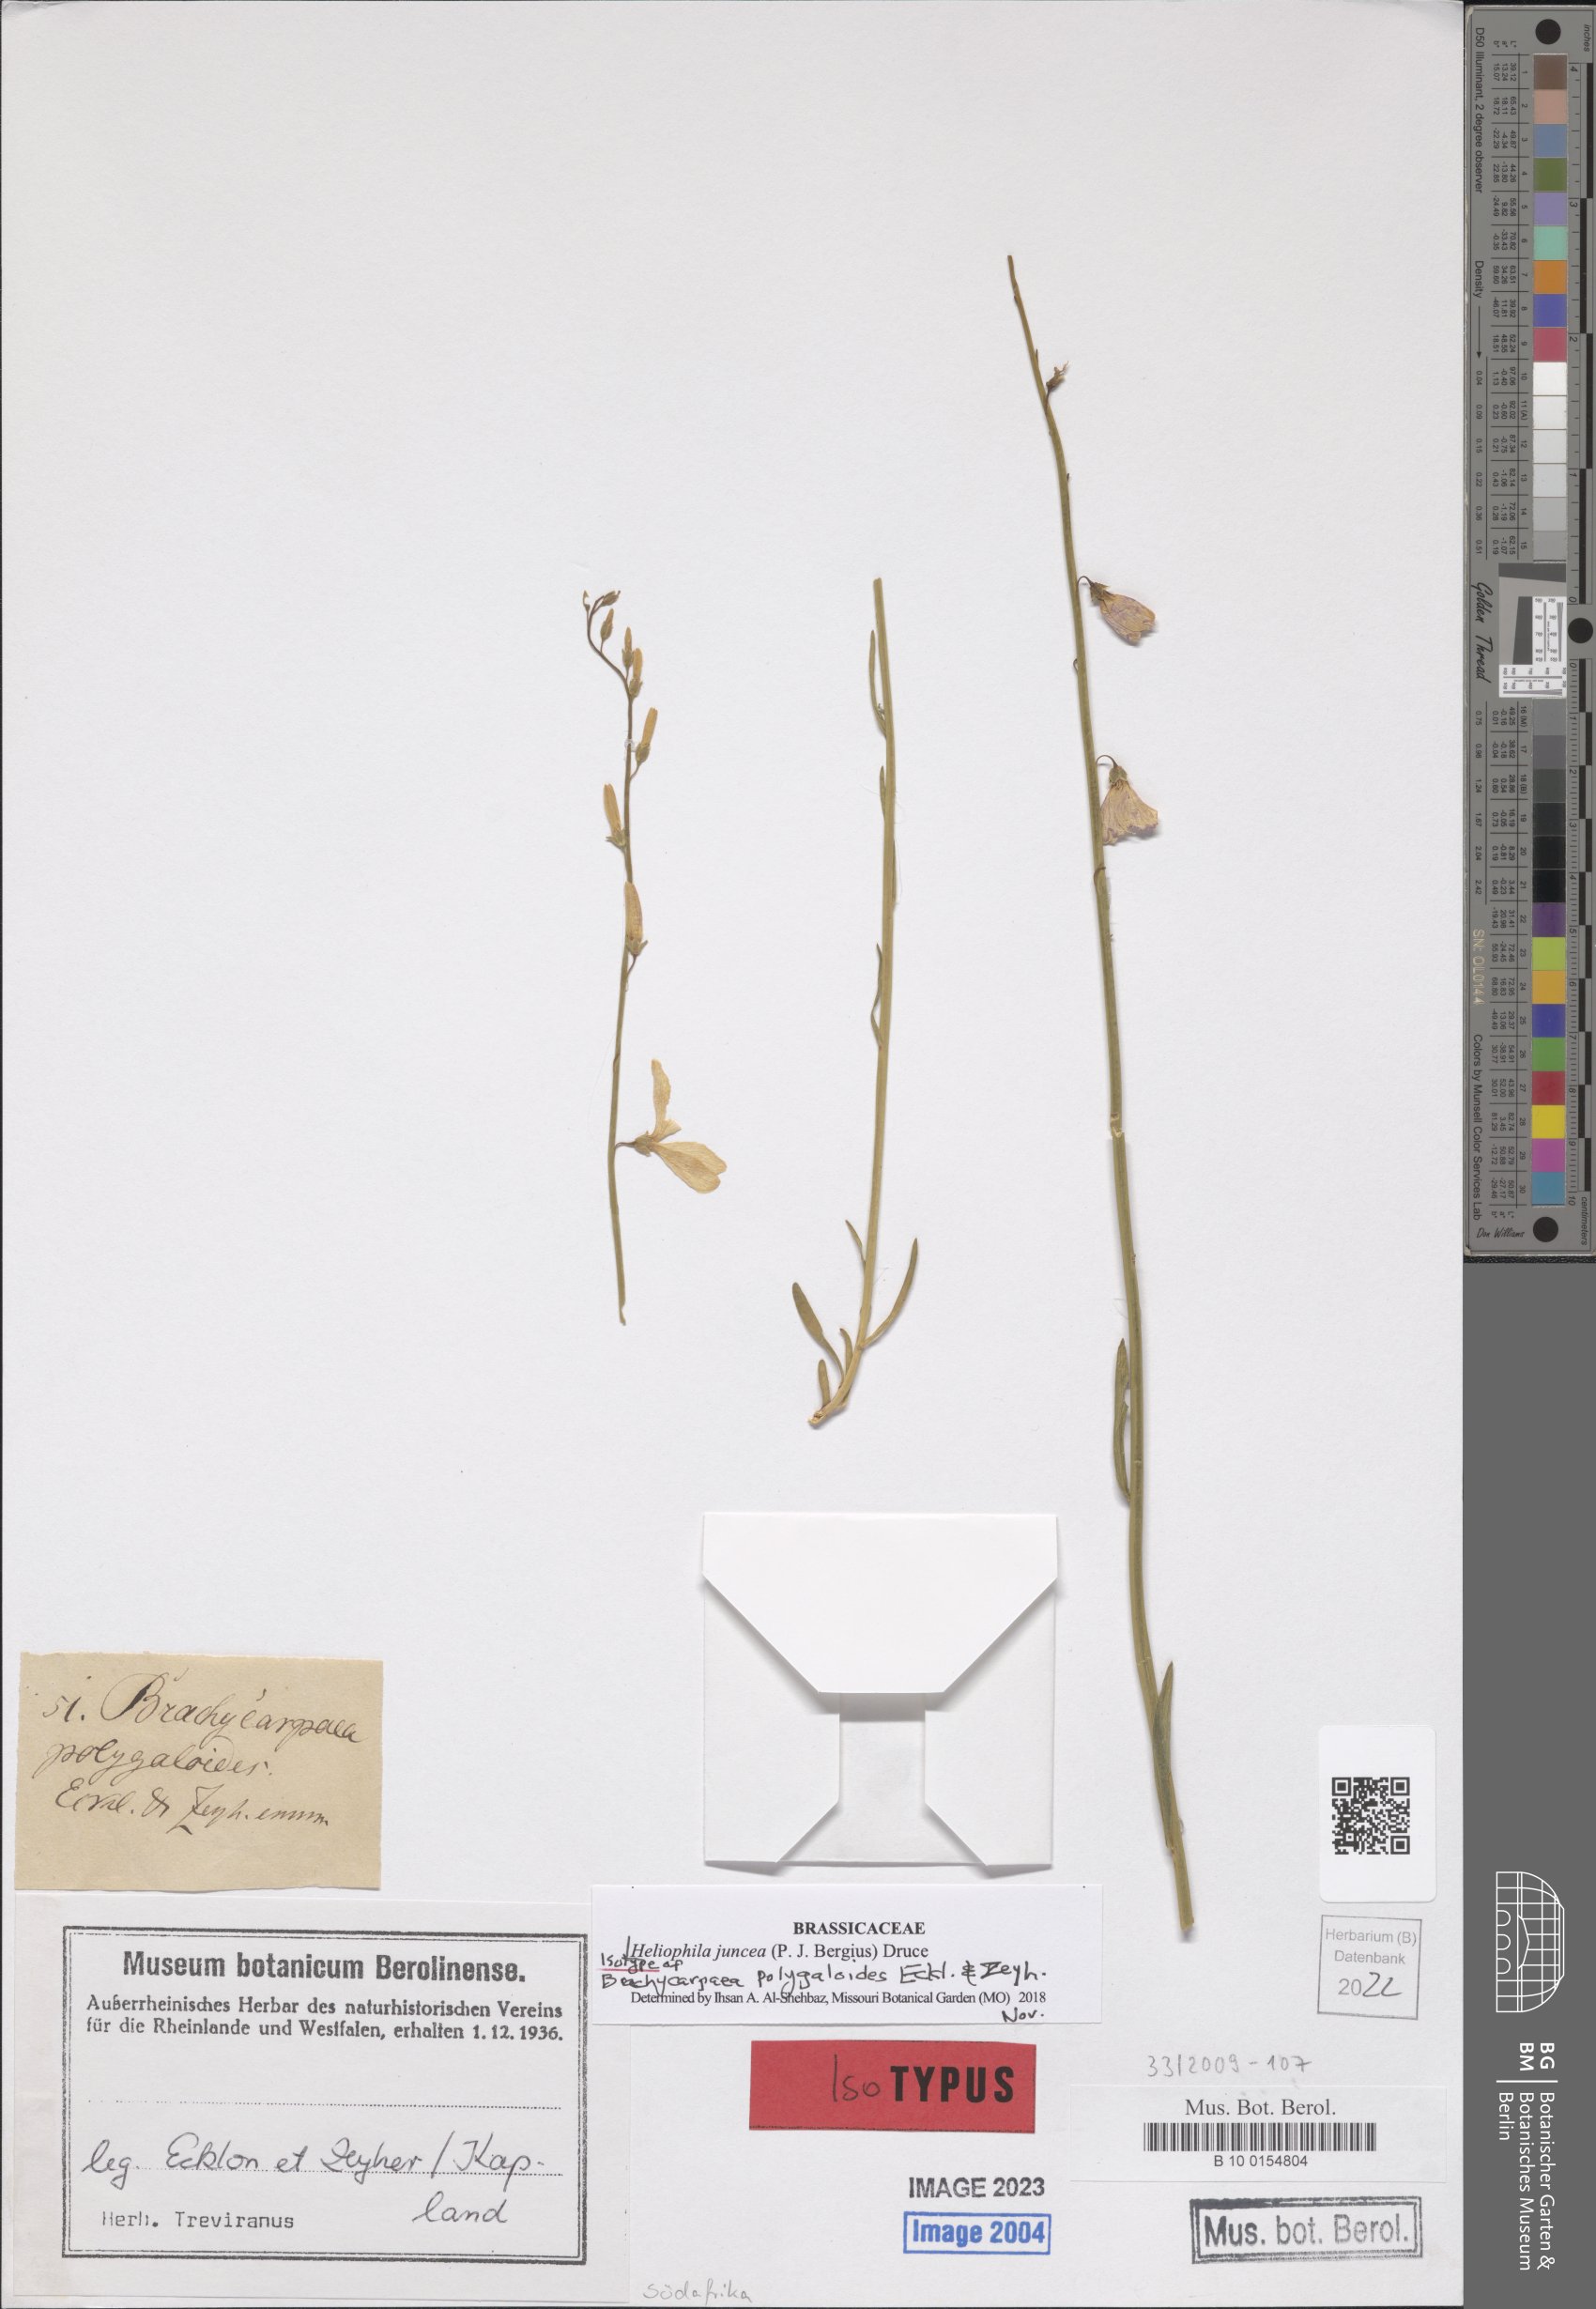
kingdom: Plantae
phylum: Tracheophyta
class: Magnoliopsida
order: Brassicales
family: Brassicaceae
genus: Heliophila
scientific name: Heliophila juncea
